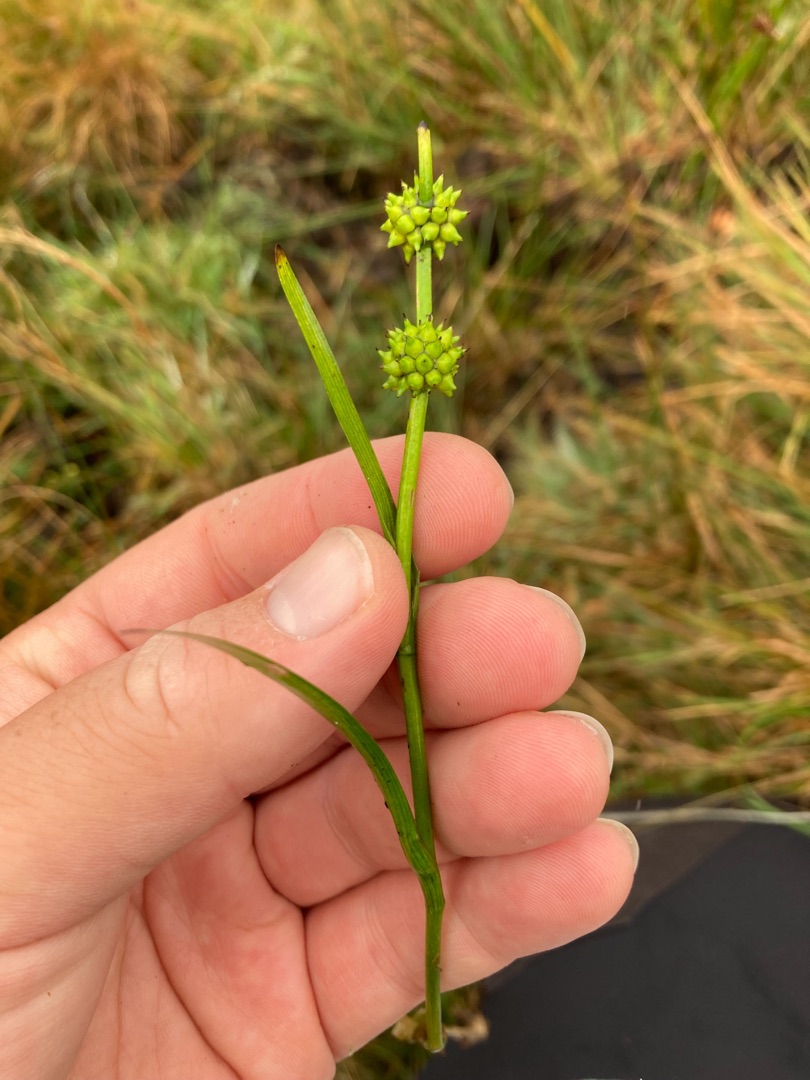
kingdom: Plantae
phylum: Tracheophyta
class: Liliopsida
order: Poales
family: Typhaceae
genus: Sparganium
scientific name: Sparganium emersum
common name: Enkelt pindsvineknop
